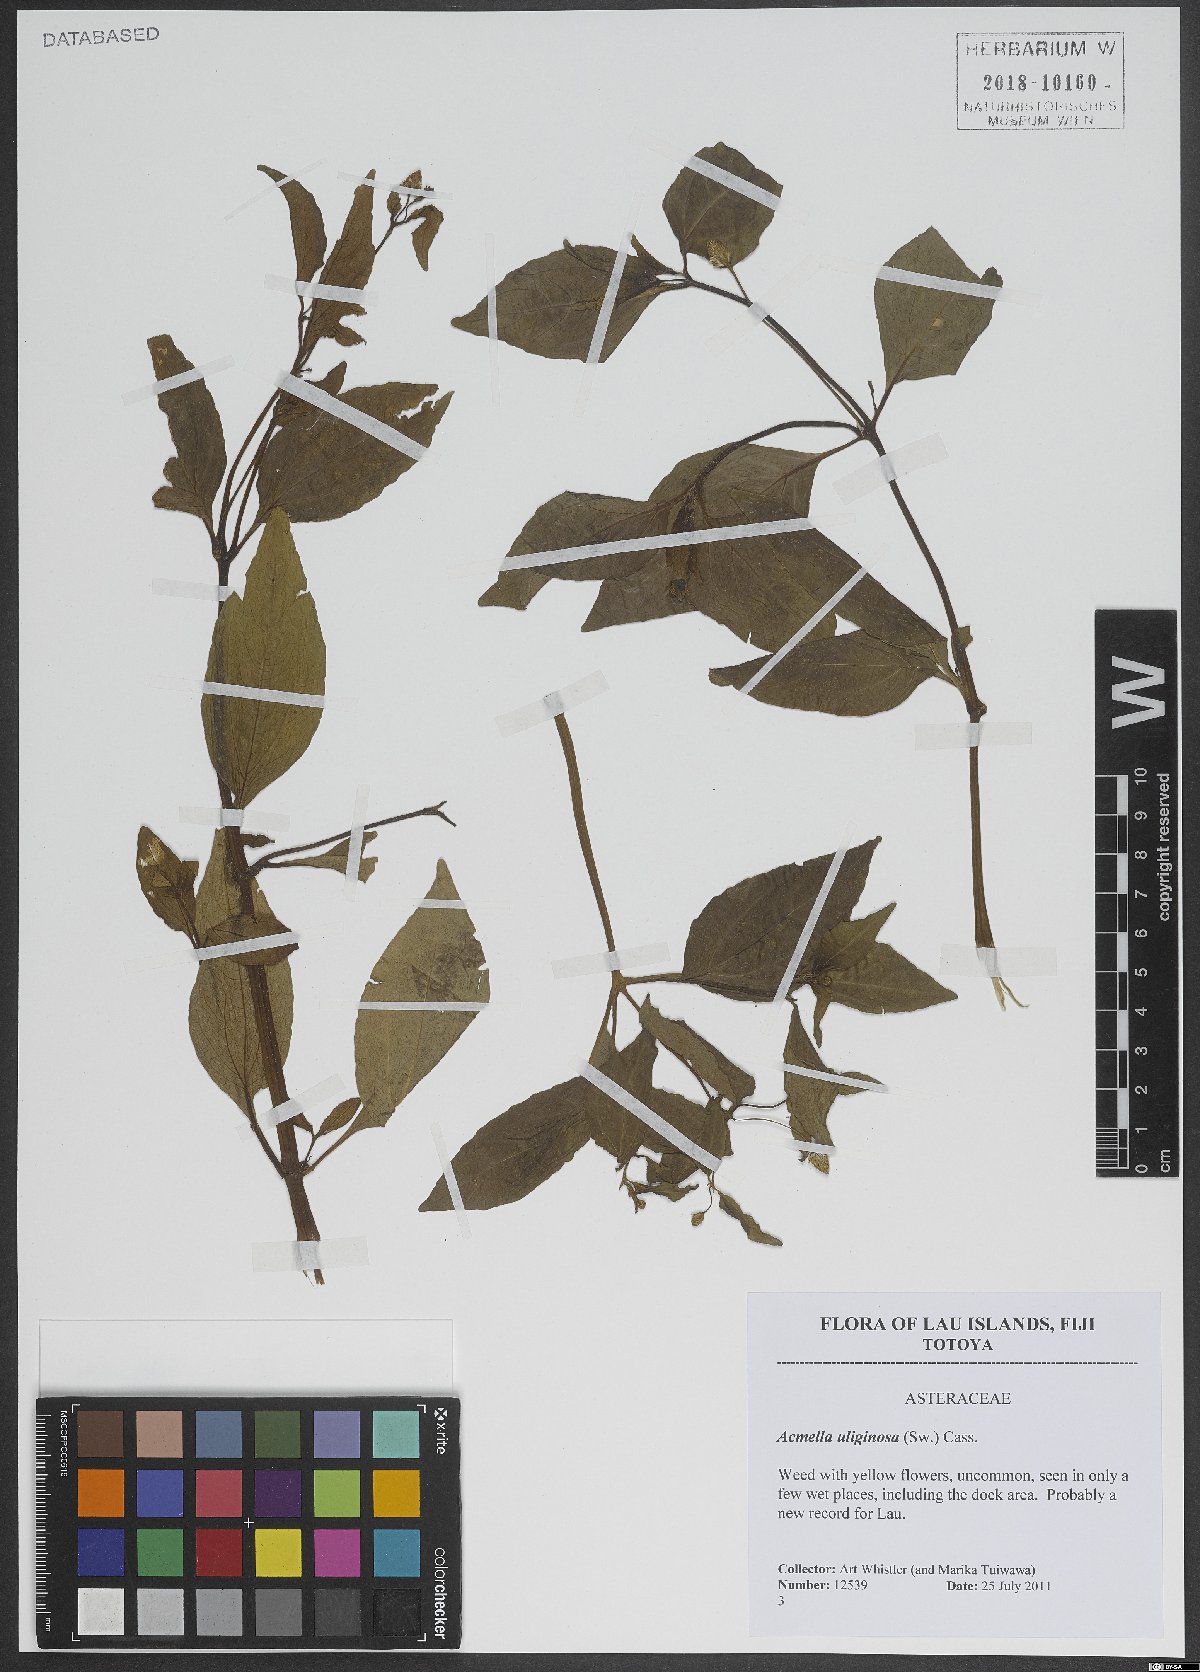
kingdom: Plantae
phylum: Tracheophyta
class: Magnoliopsida
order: Asterales
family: Asteraceae
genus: Acmella
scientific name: Acmella uliginosa
